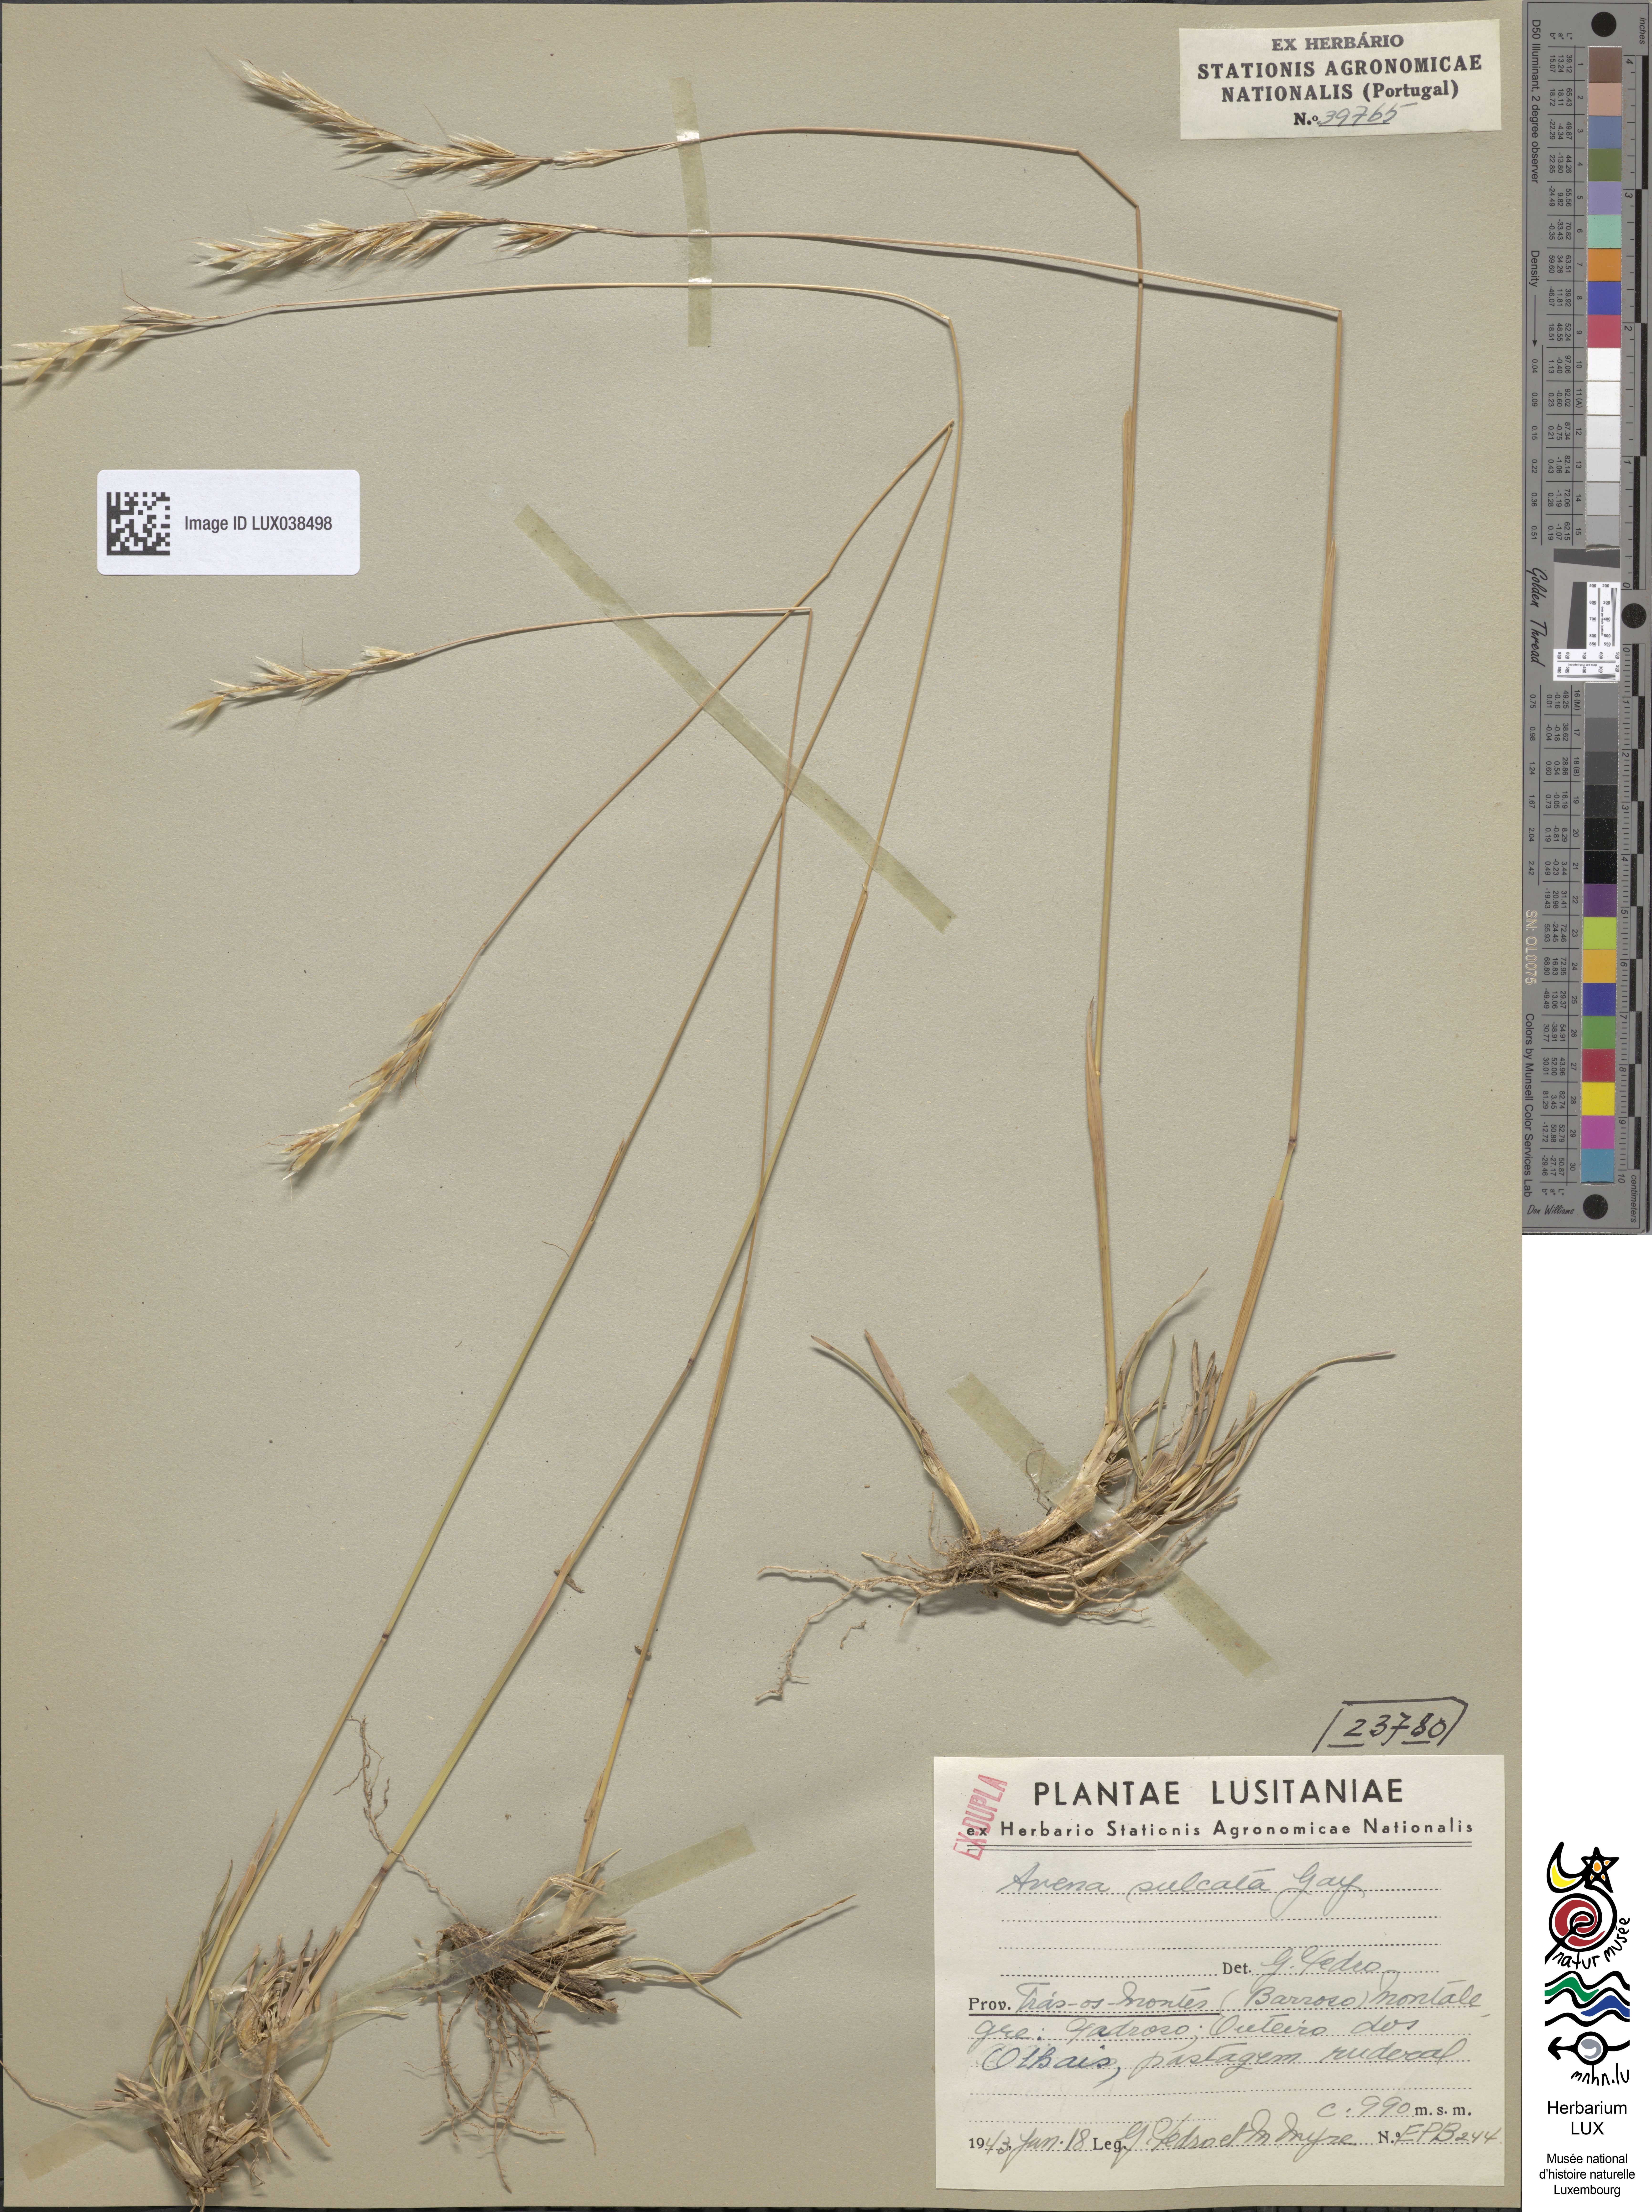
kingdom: Plantae
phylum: Tracheophyta
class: Liliopsida
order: Poales
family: Poaceae
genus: Helictochloa
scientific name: Helictochloa marginata
